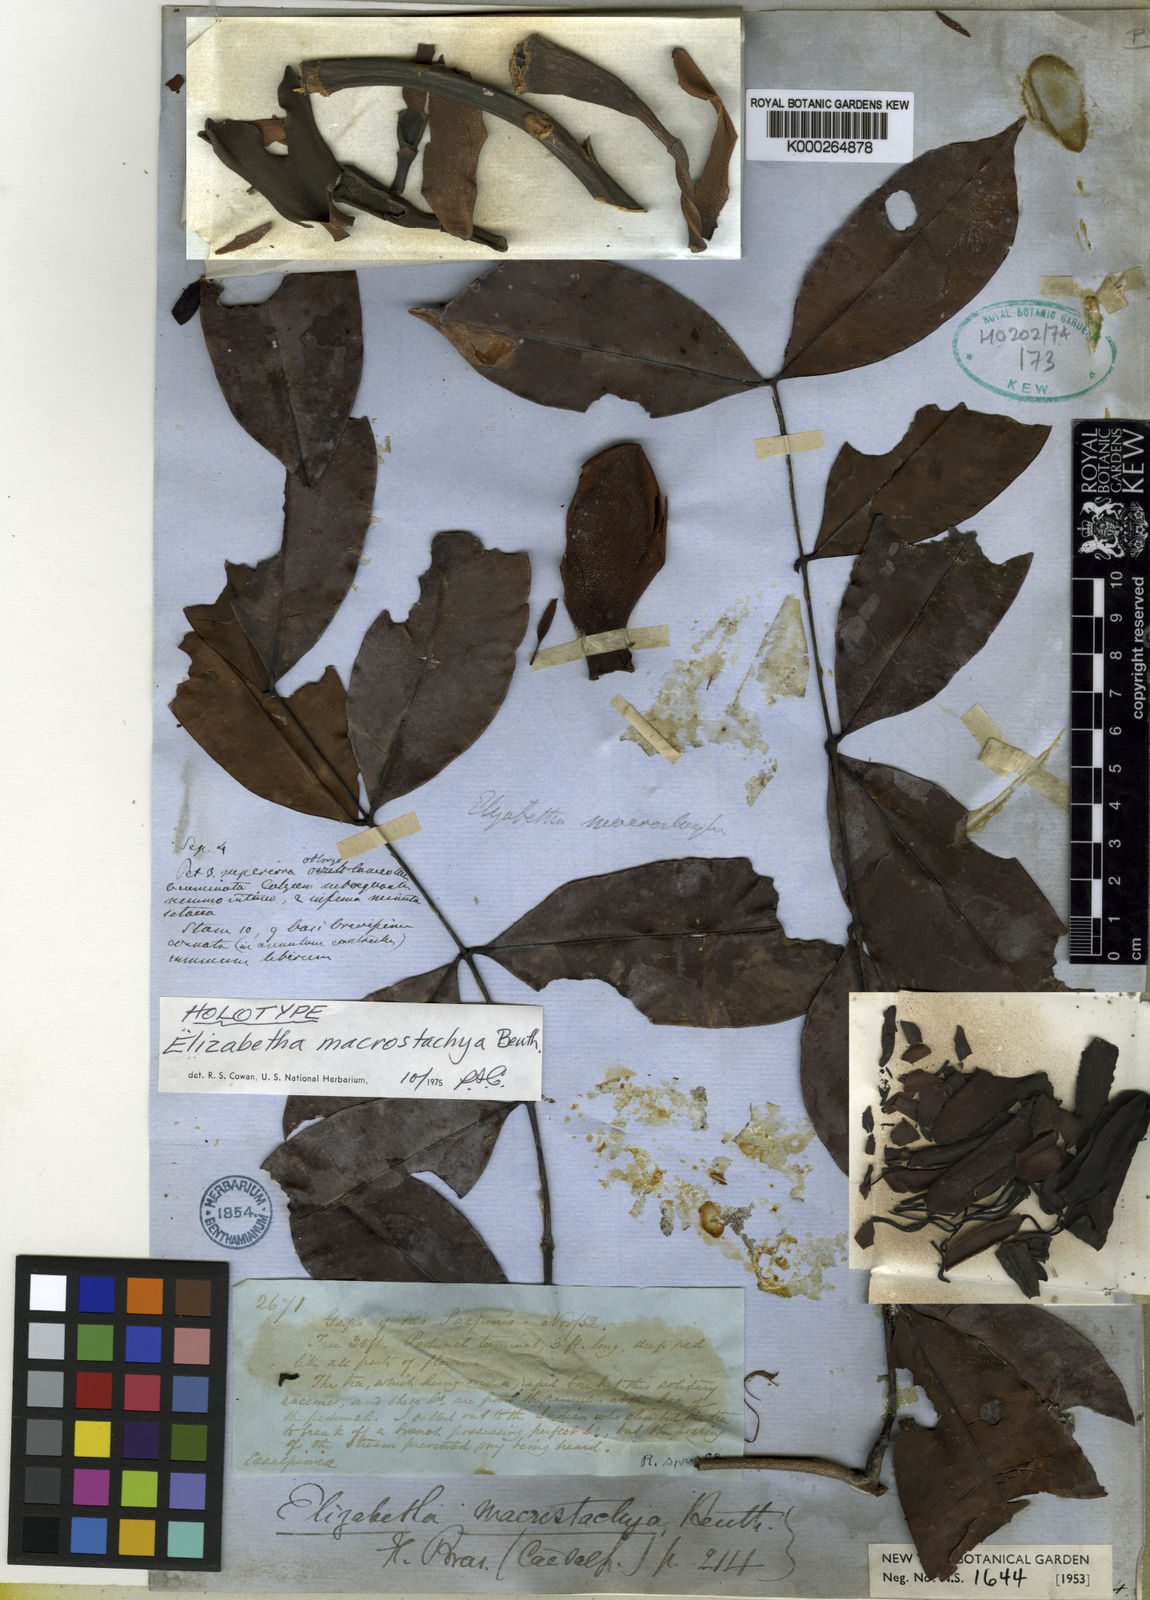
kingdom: Plantae
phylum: Tracheophyta
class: Magnoliopsida
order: Fabales
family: Fabaceae
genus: Paloue
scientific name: Paloue macrostachya
